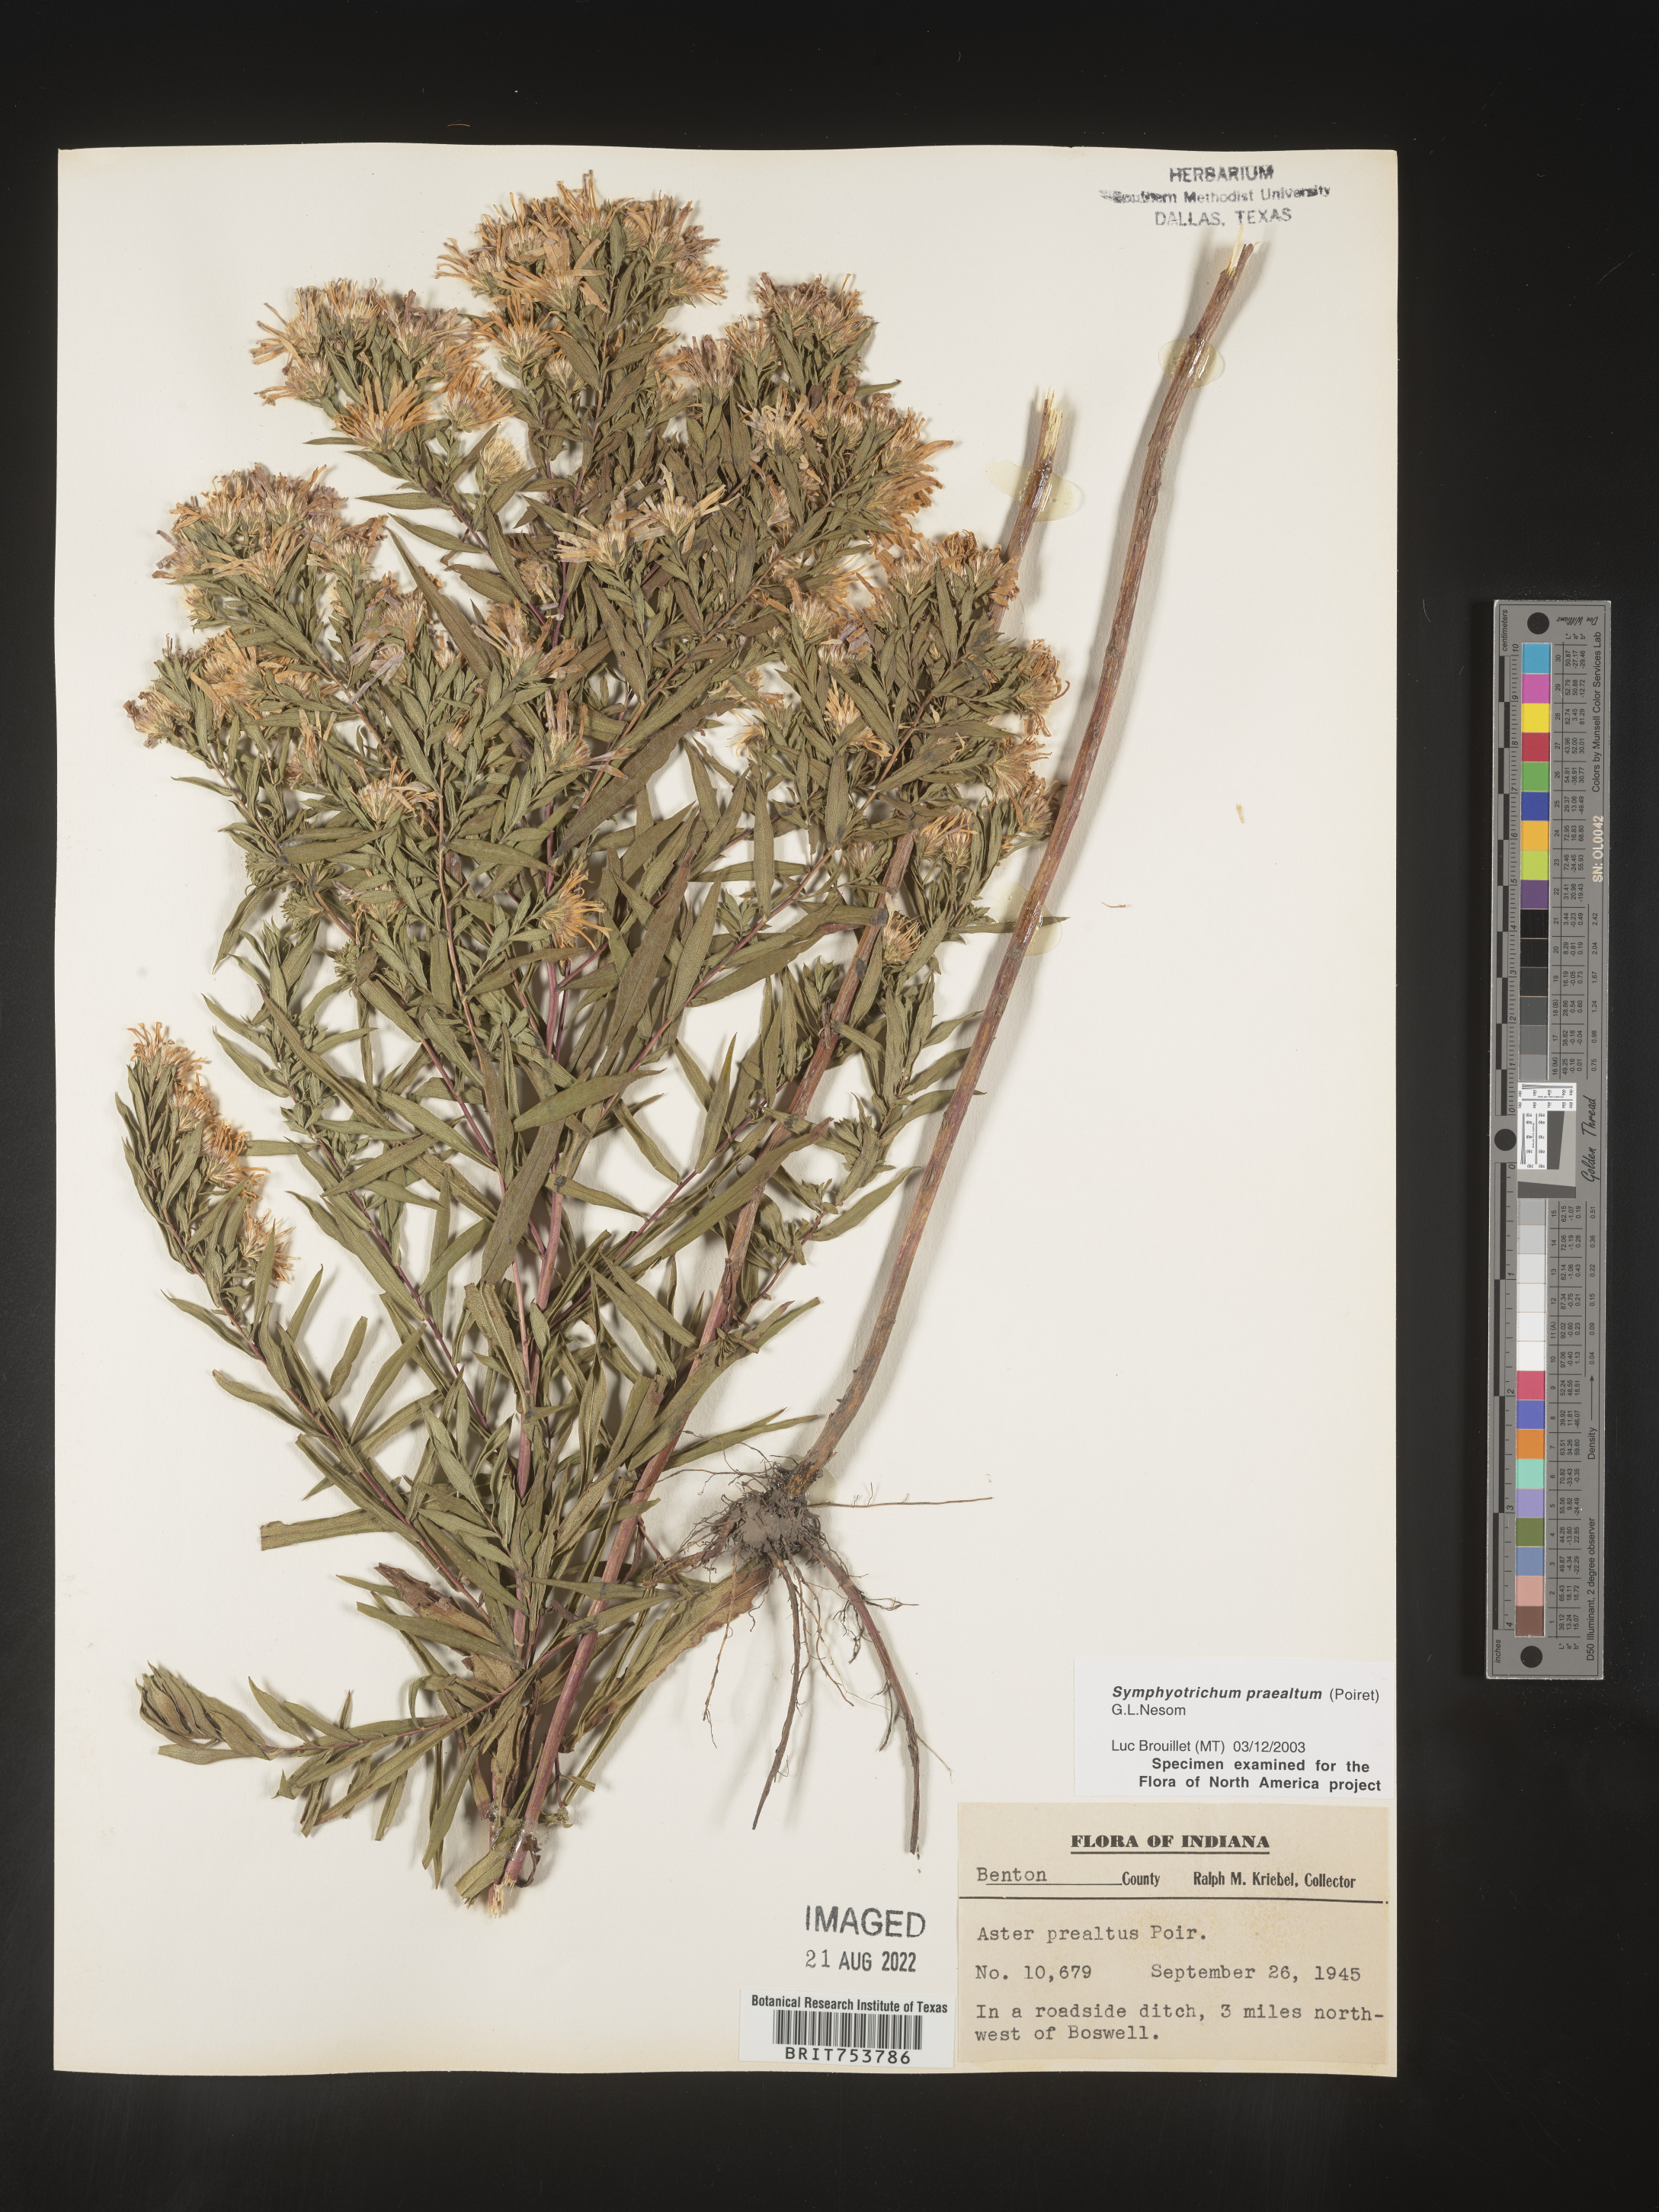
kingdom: Plantae
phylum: Tracheophyta
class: Magnoliopsida
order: Asterales
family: Asteraceae
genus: Symphyotrichum
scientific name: Symphyotrichum praealtum
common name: Willow aster
